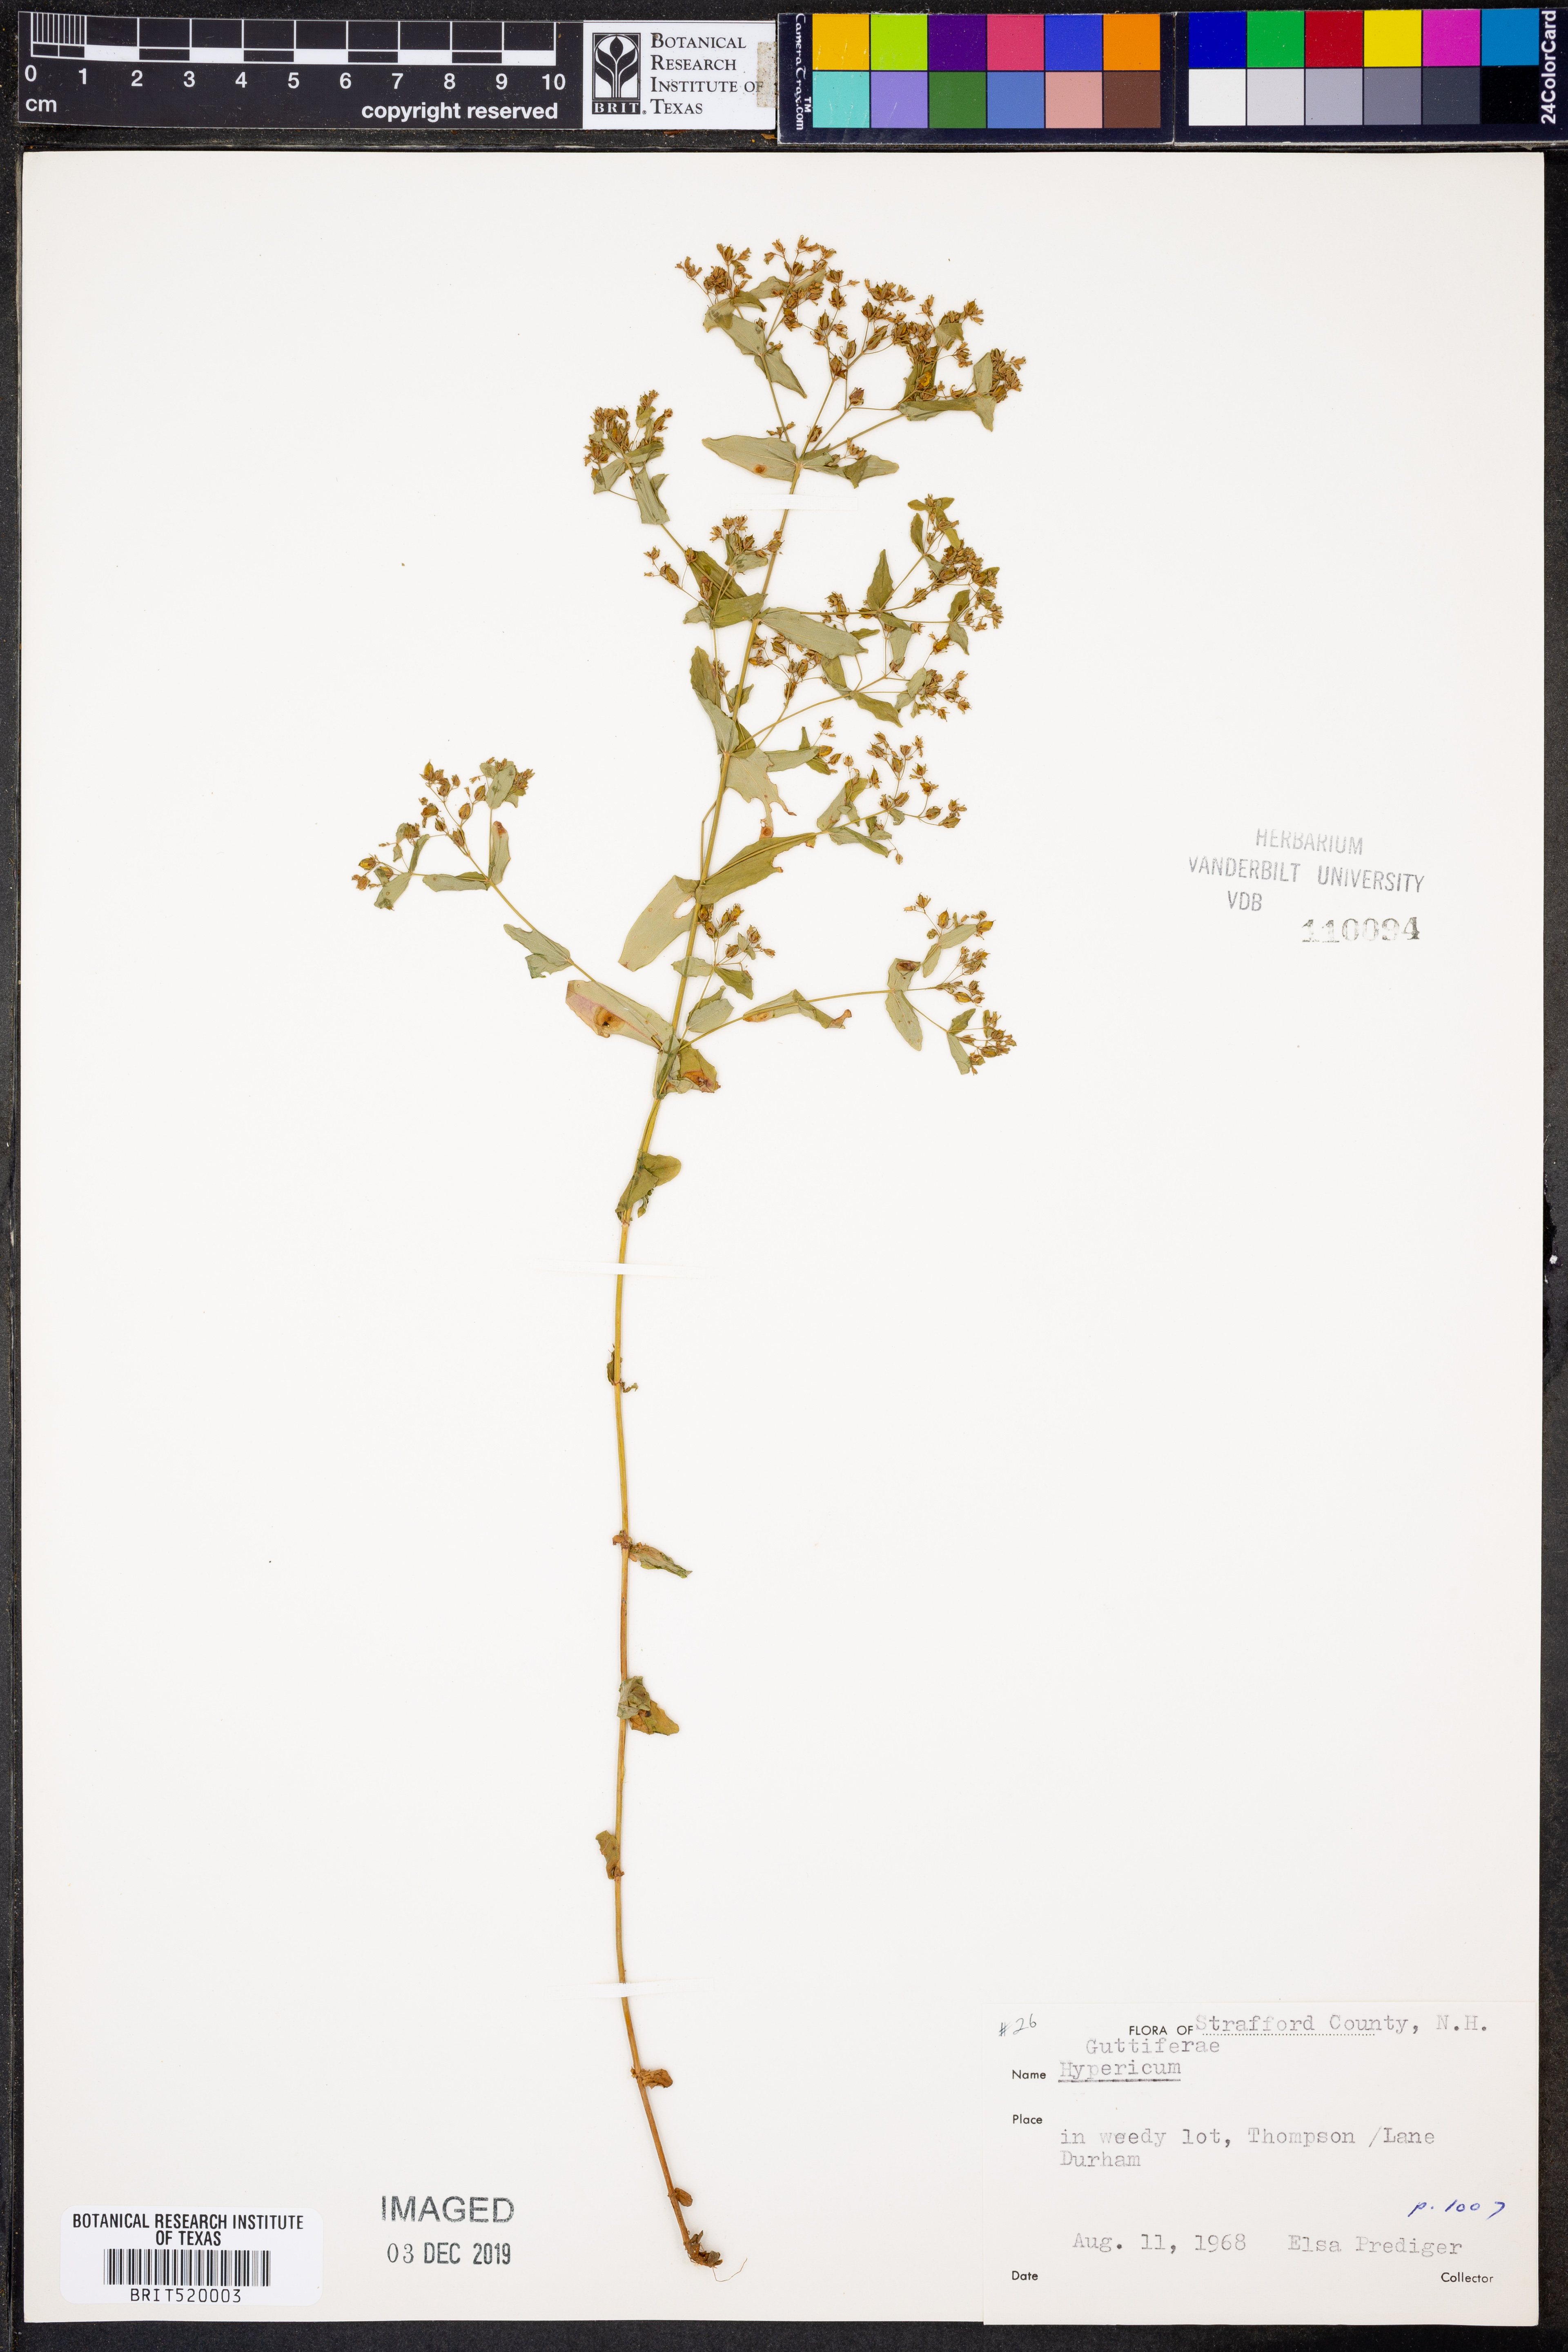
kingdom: Plantae
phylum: Tracheophyta
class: Magnoliopsida
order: Malpighiales
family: Hypericaceae
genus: Hypericum
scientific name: Hypericum
